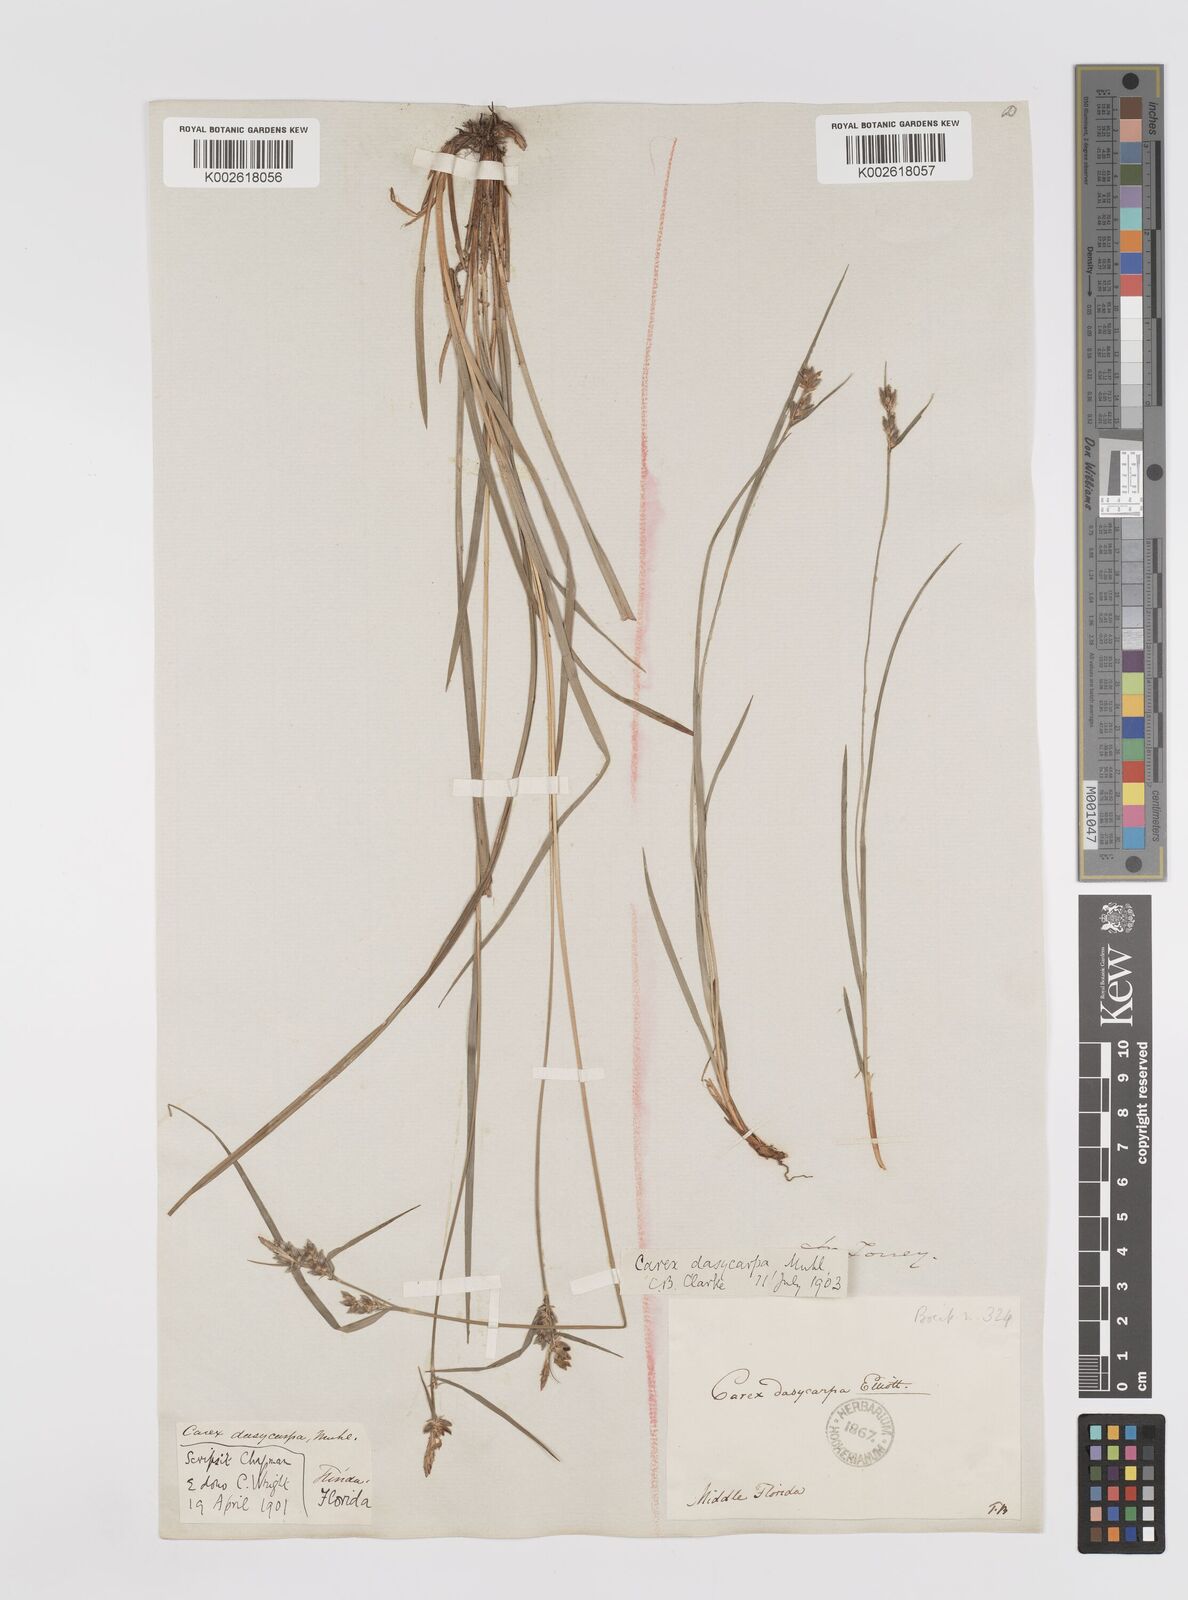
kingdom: Plantae
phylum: Tracheophyta
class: Liliopsida
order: Poales
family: Cyperaceae
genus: Carex
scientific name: Carex dasycarpa
